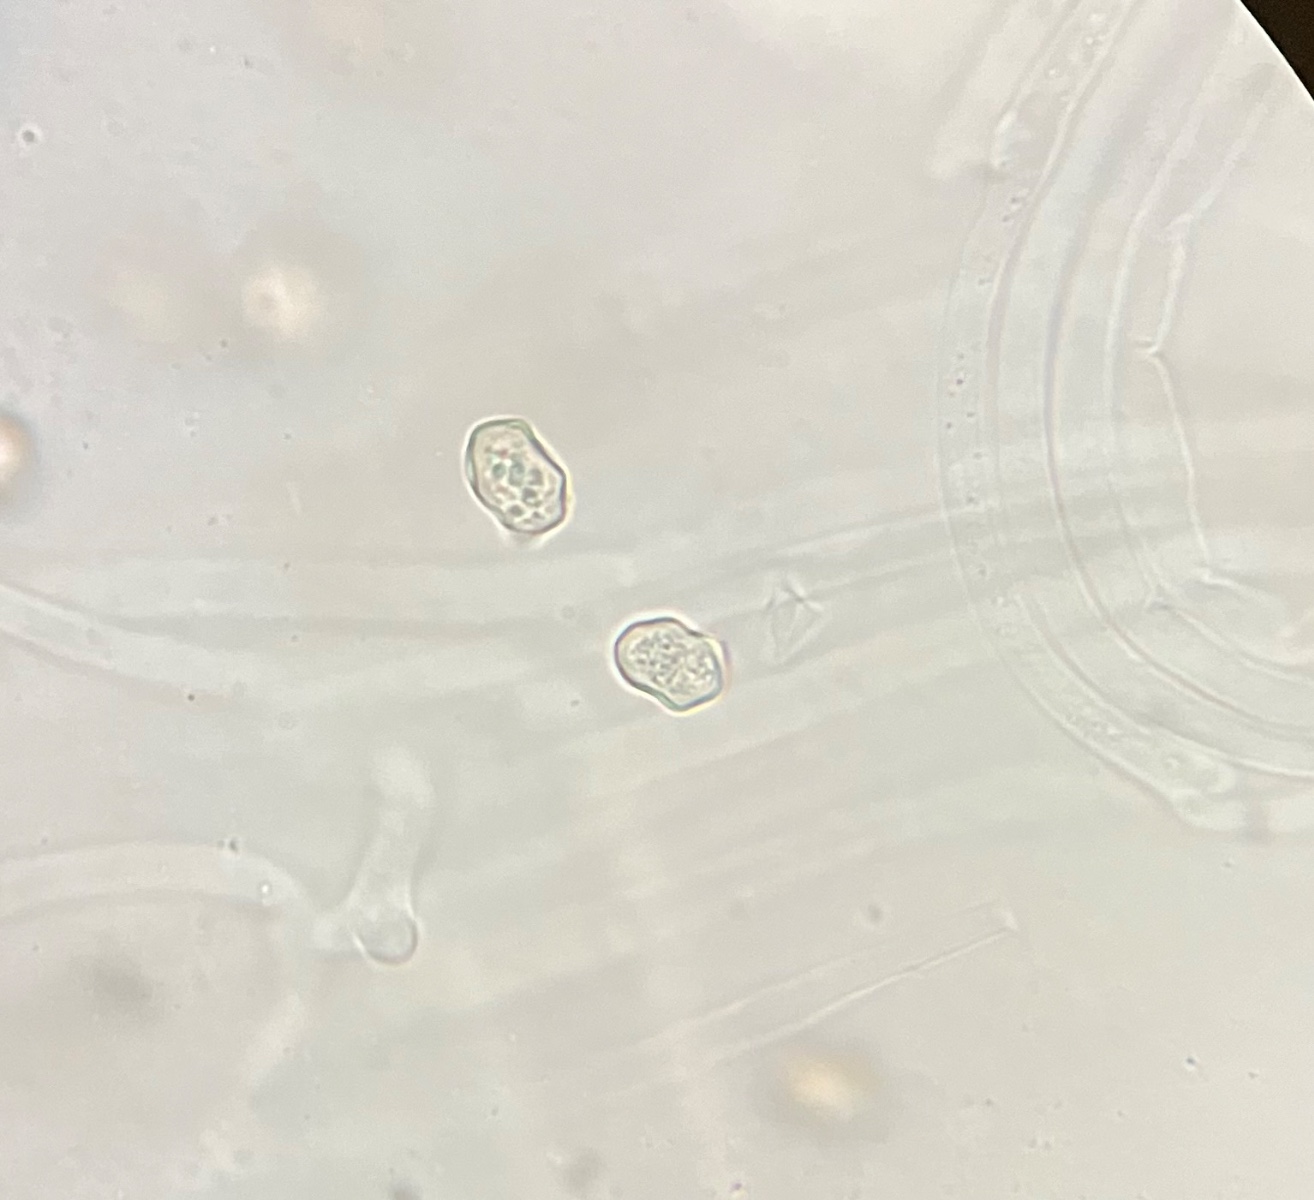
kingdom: Fungi
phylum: Basidiomycota
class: Agaricomycetes
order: Agaricales
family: Entolomataceae
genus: Entoloma
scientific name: Entoloma cetratum
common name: voks-rødblad
